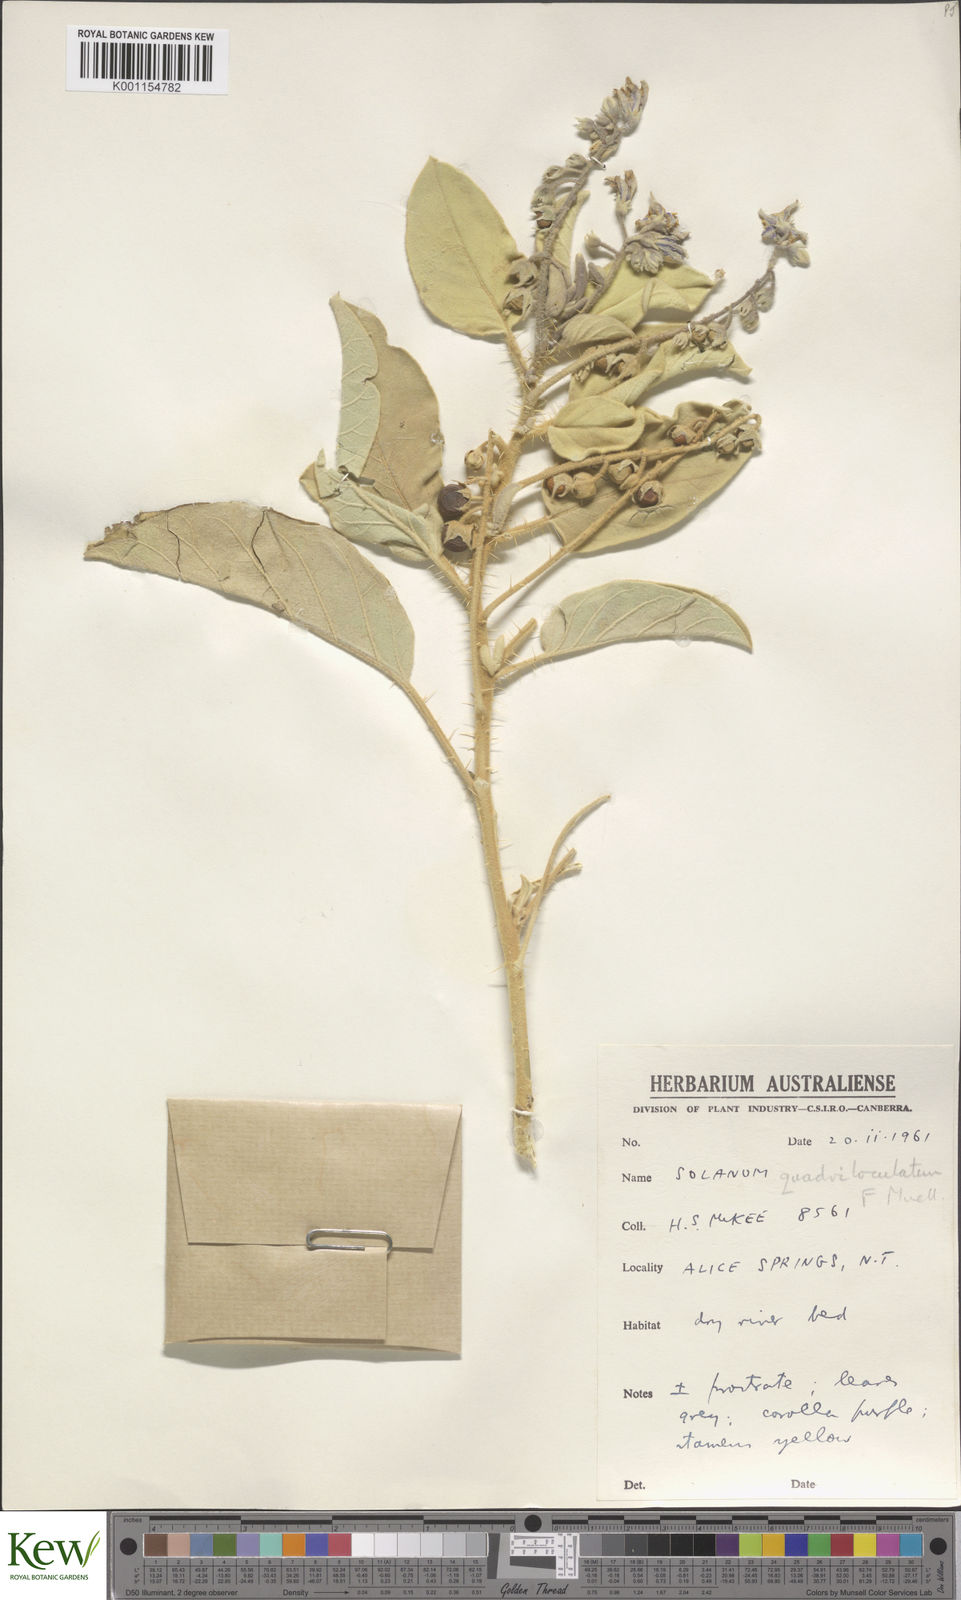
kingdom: Plantae
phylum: Tracheophyta
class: Magnoliopsida
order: Solanales
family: Solanaceae
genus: Solanum
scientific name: Solanum quadriloculatum
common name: Wild tomato
